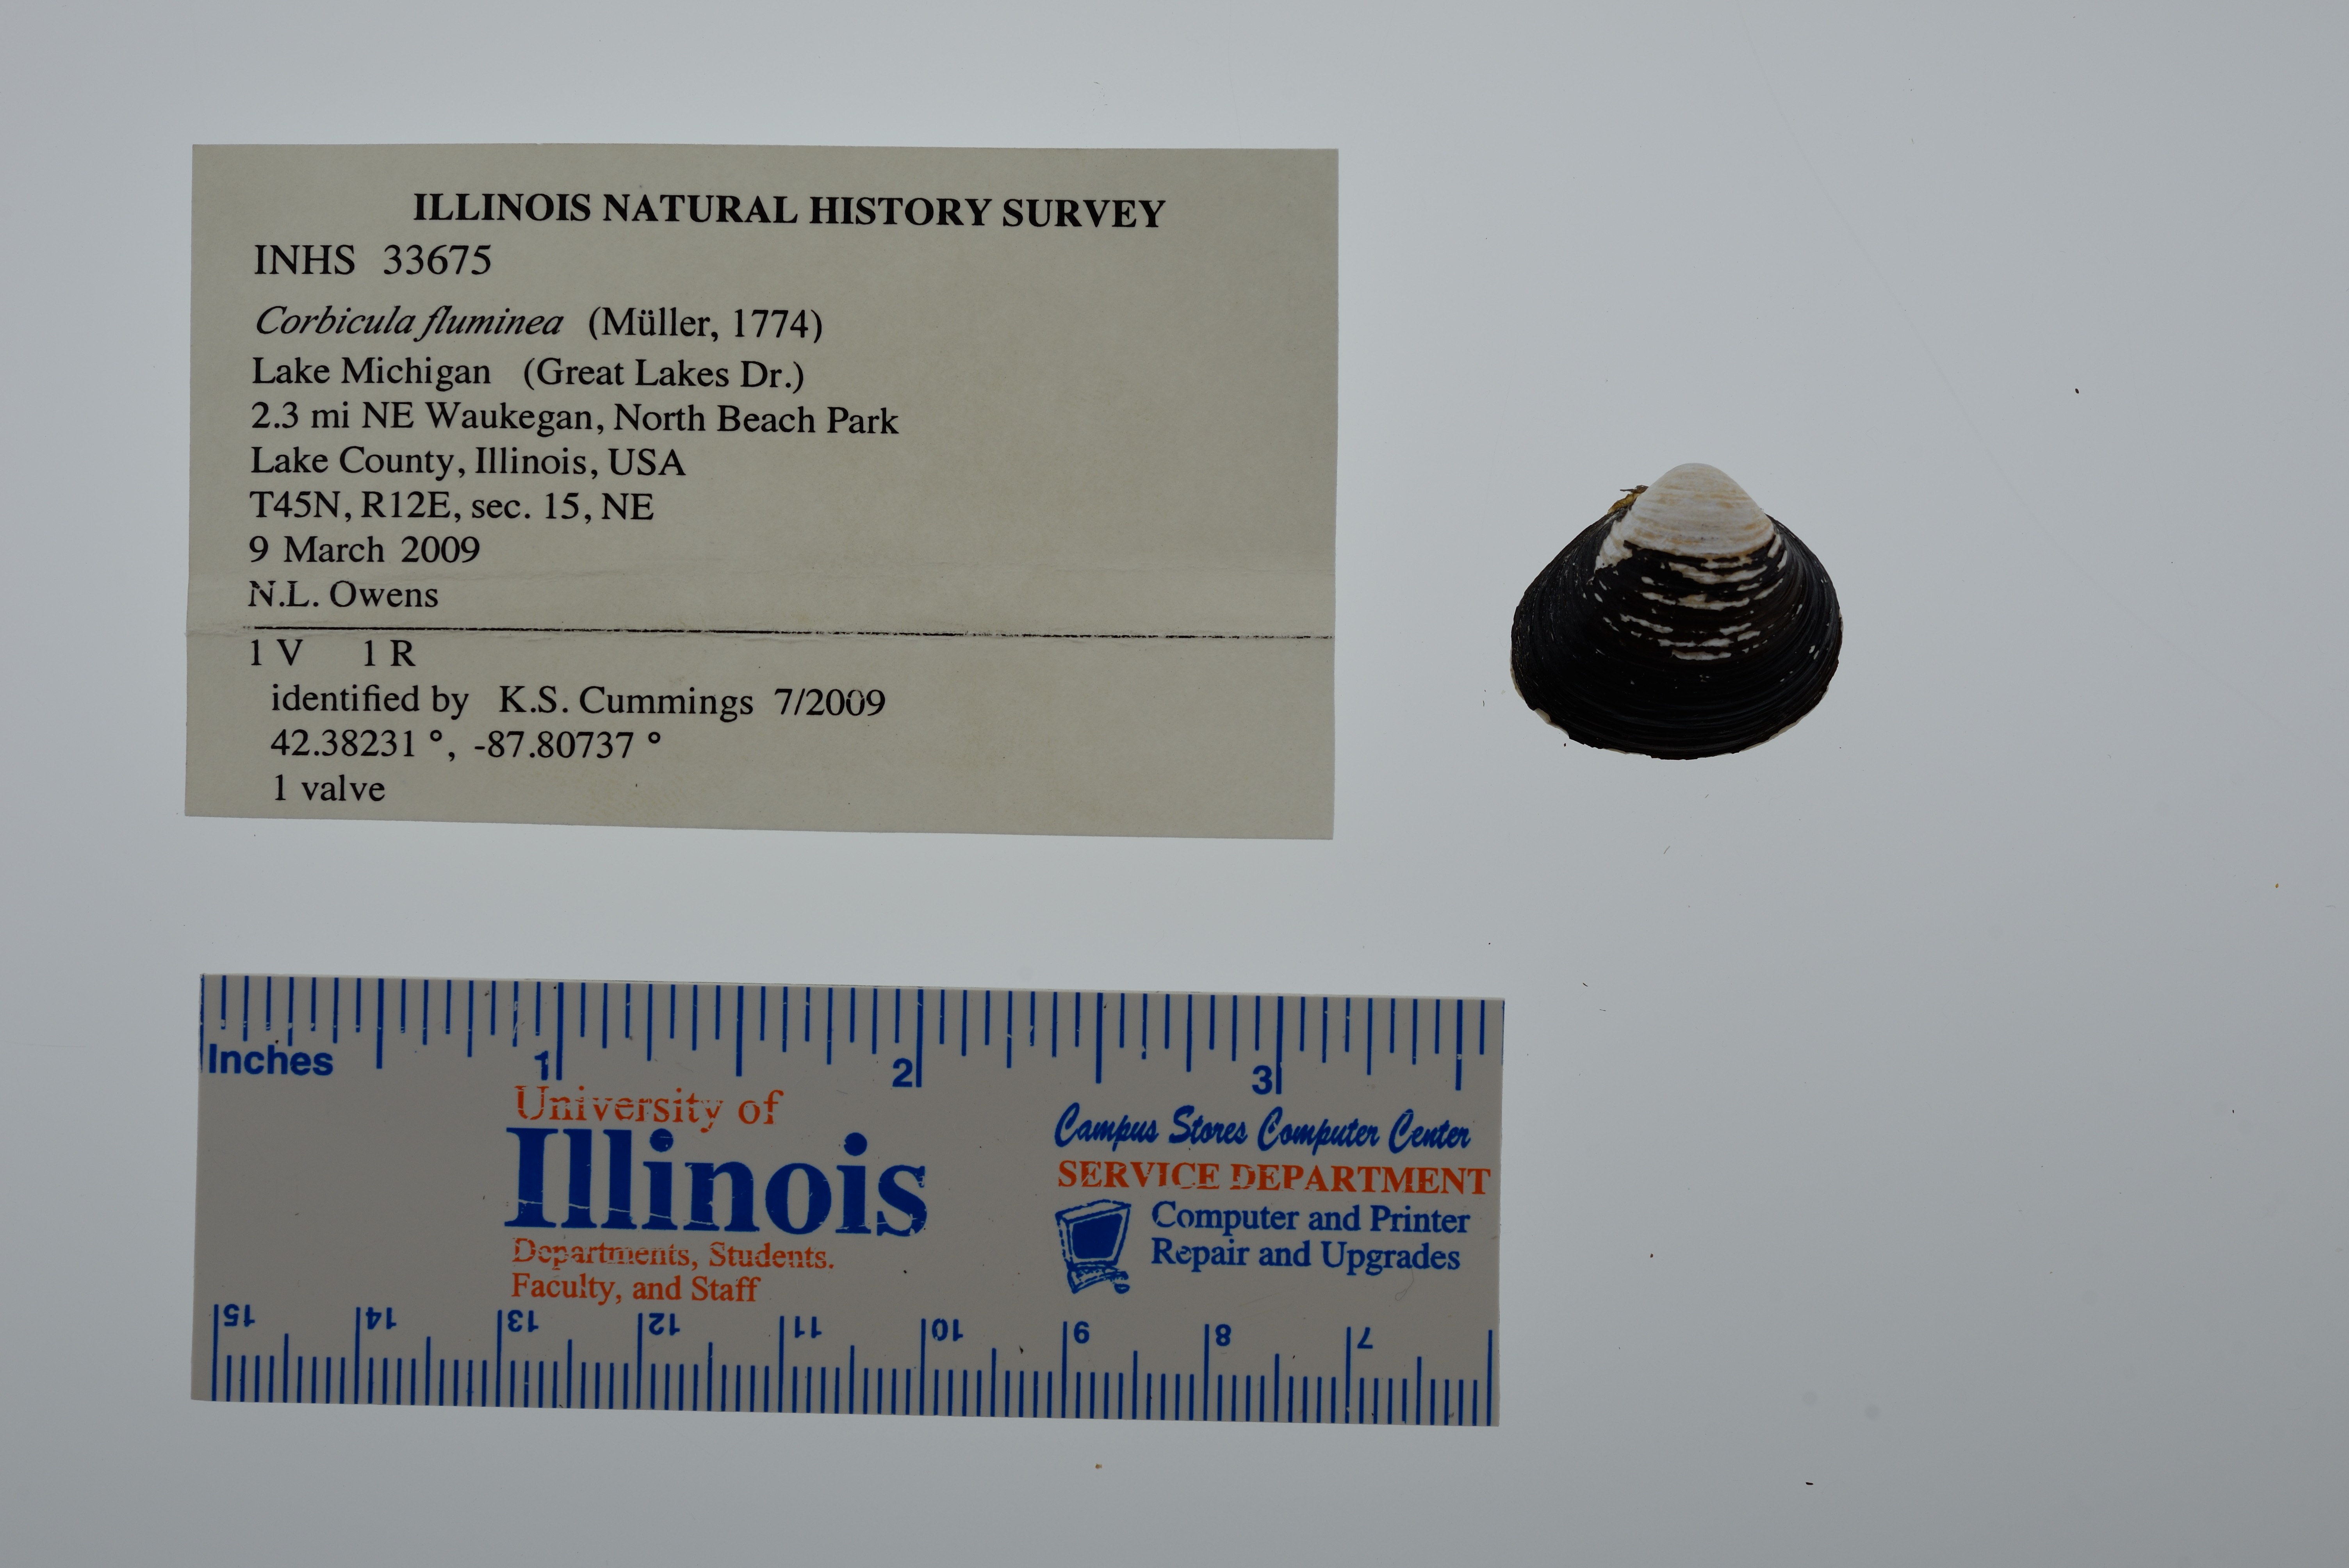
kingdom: Animalia
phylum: Mollusca
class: Bivalvia
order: Venerida
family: Cyrenidae
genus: Corbicula
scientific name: Corbicula fluminea
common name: Asian clam
